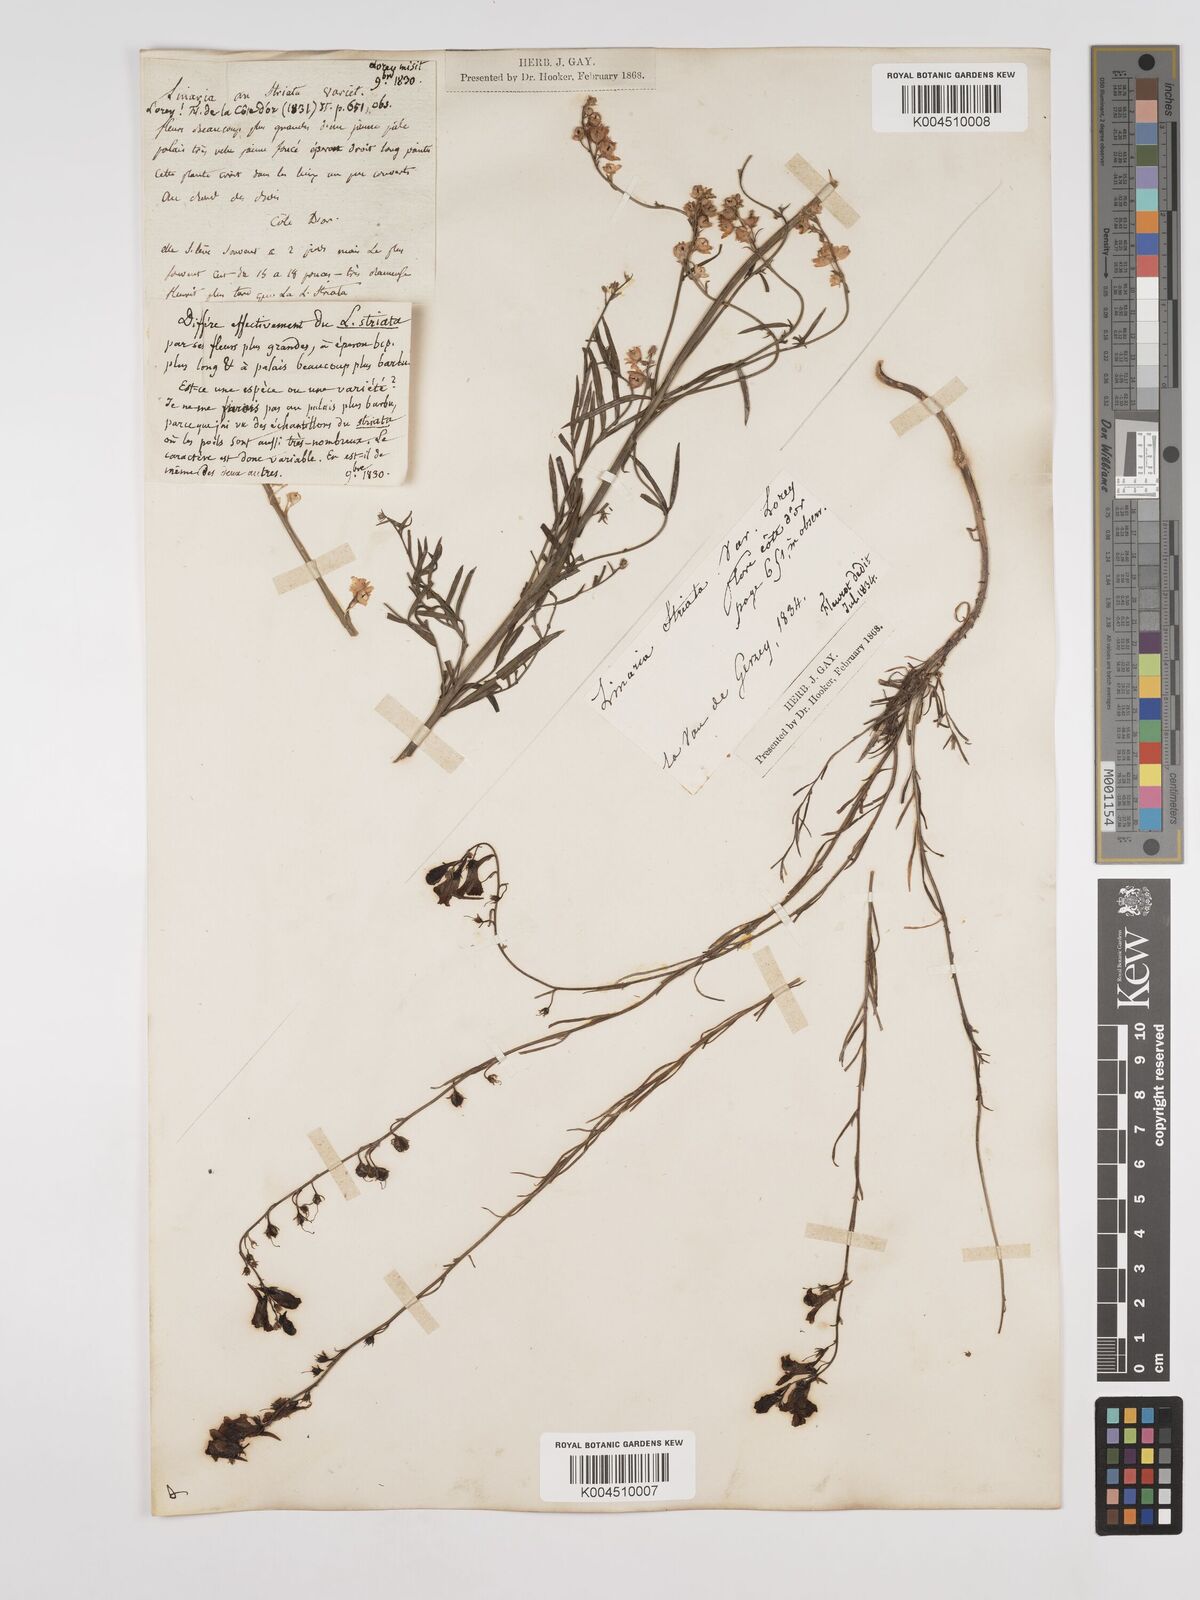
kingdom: Plantae
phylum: Tracheophyta
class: Magnoliopsida
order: Lamiales
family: Plantaginaceae
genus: Linaria
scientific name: Linaria repens
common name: Pale toadflax
